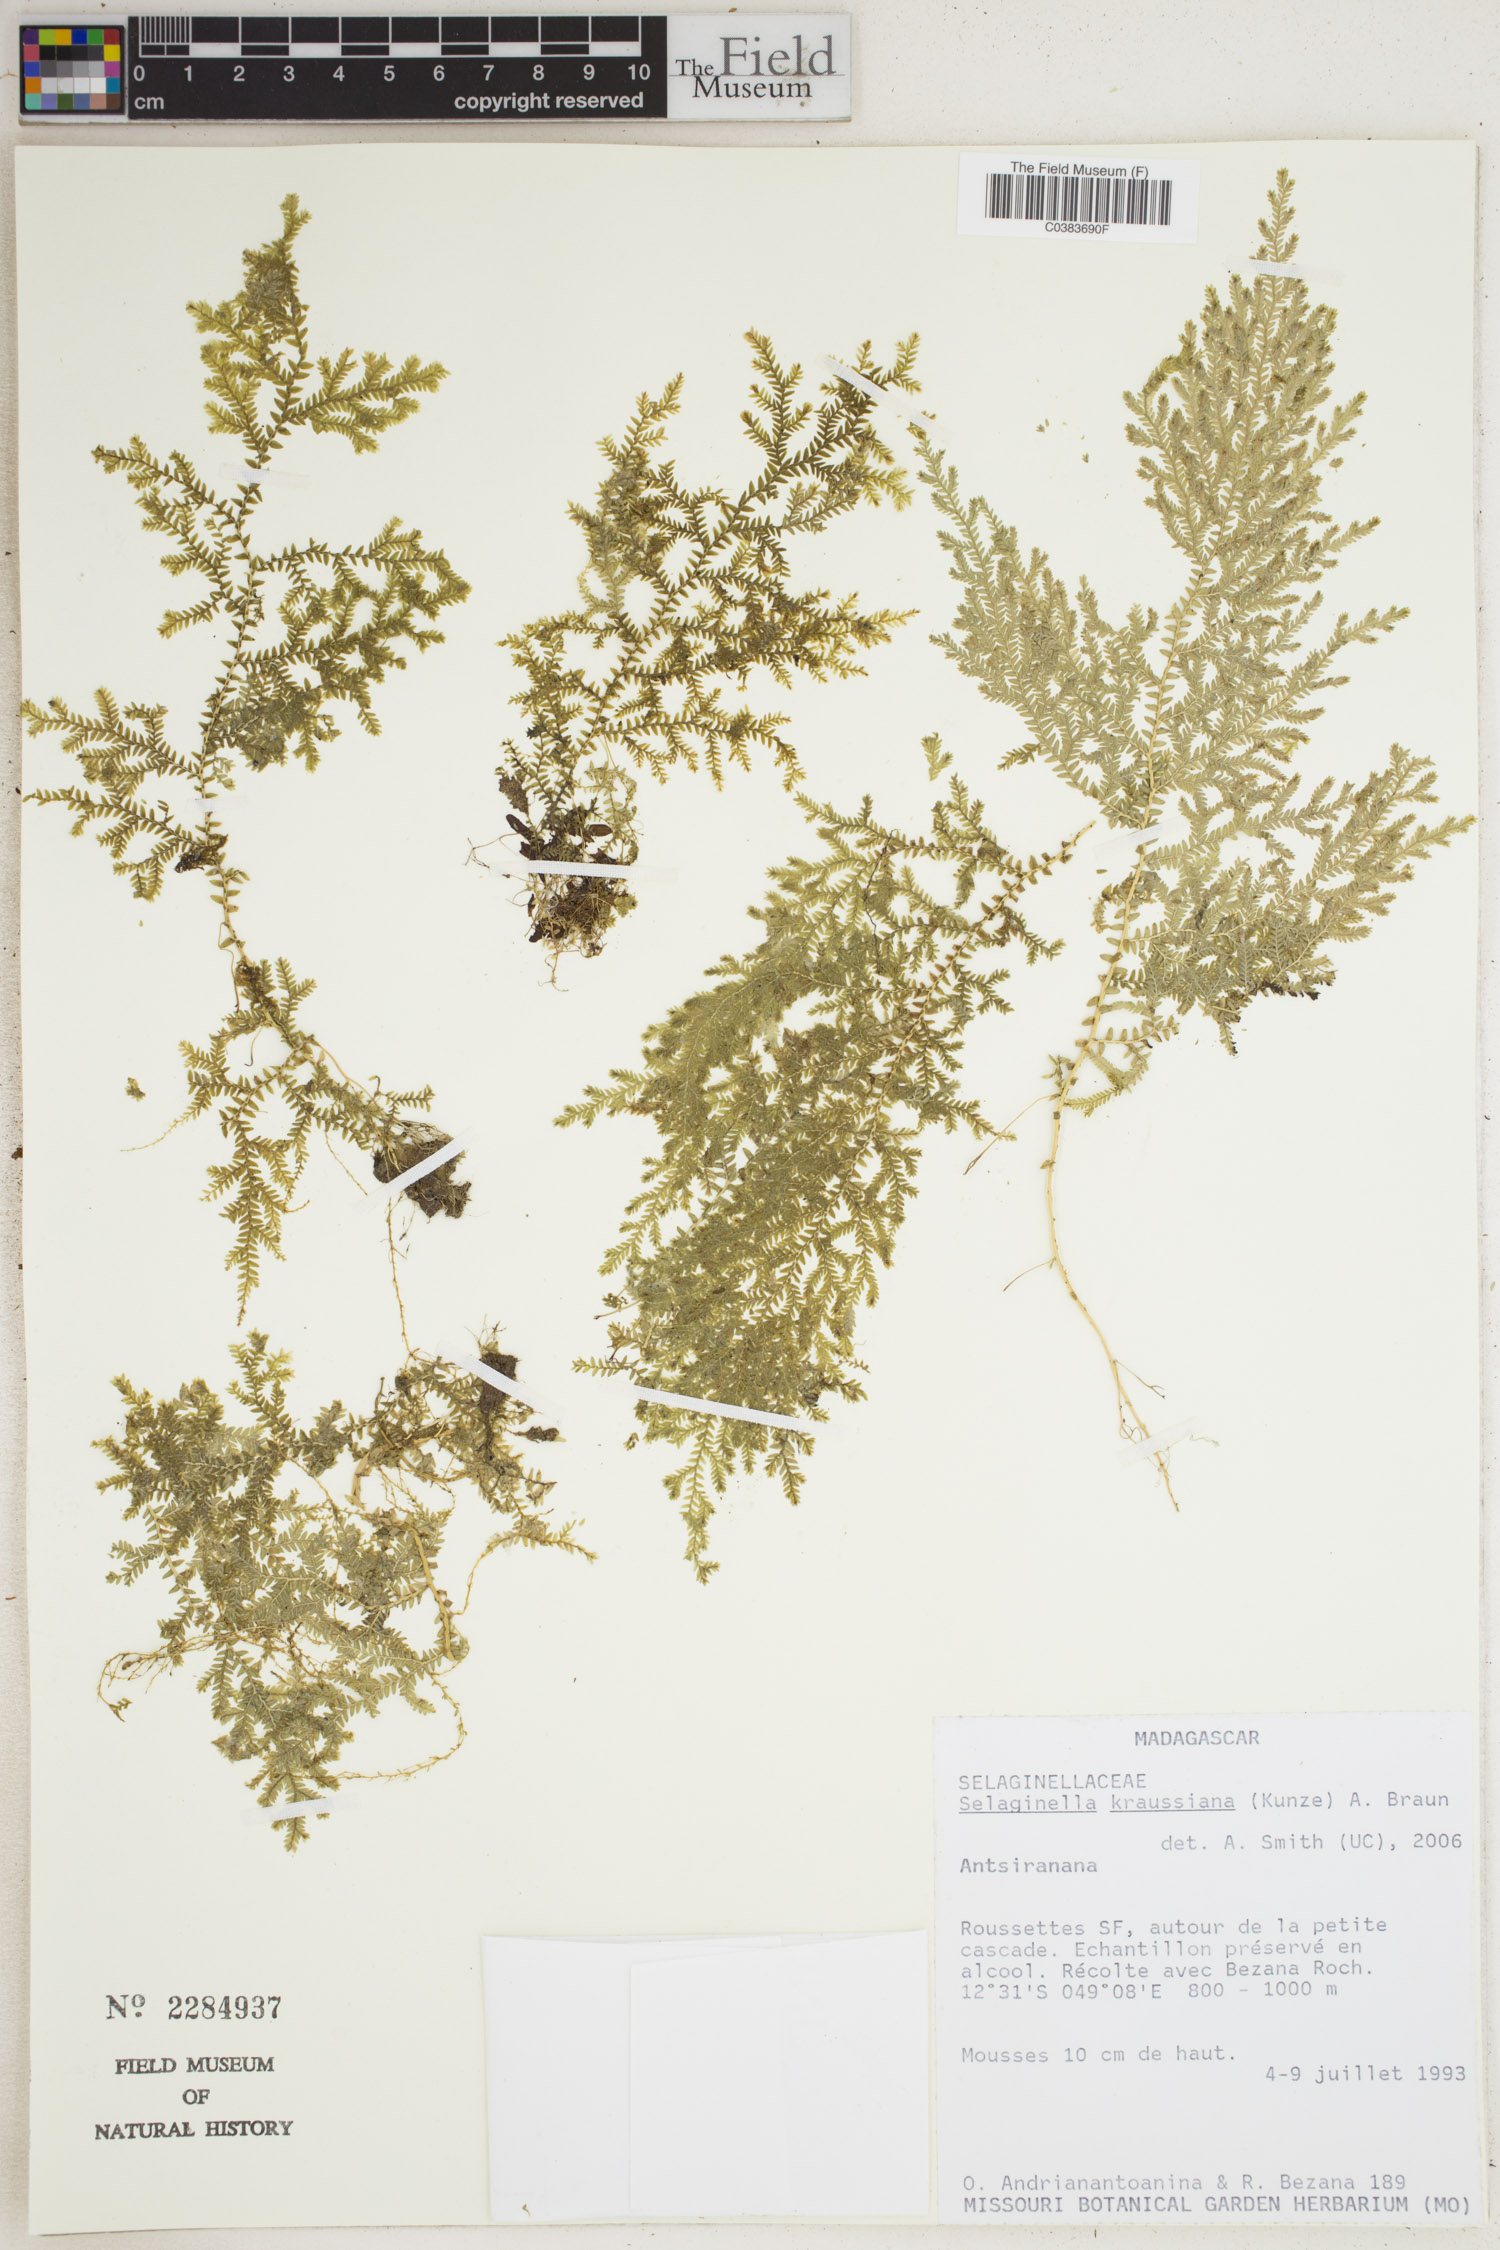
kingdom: Plantae
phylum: Tracheophyta
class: Lycopodiopsida
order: Selaginellales
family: Selaginellaceae
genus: Selaginella
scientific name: Selaginella kraussiana
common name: Krauss' spikemoss
